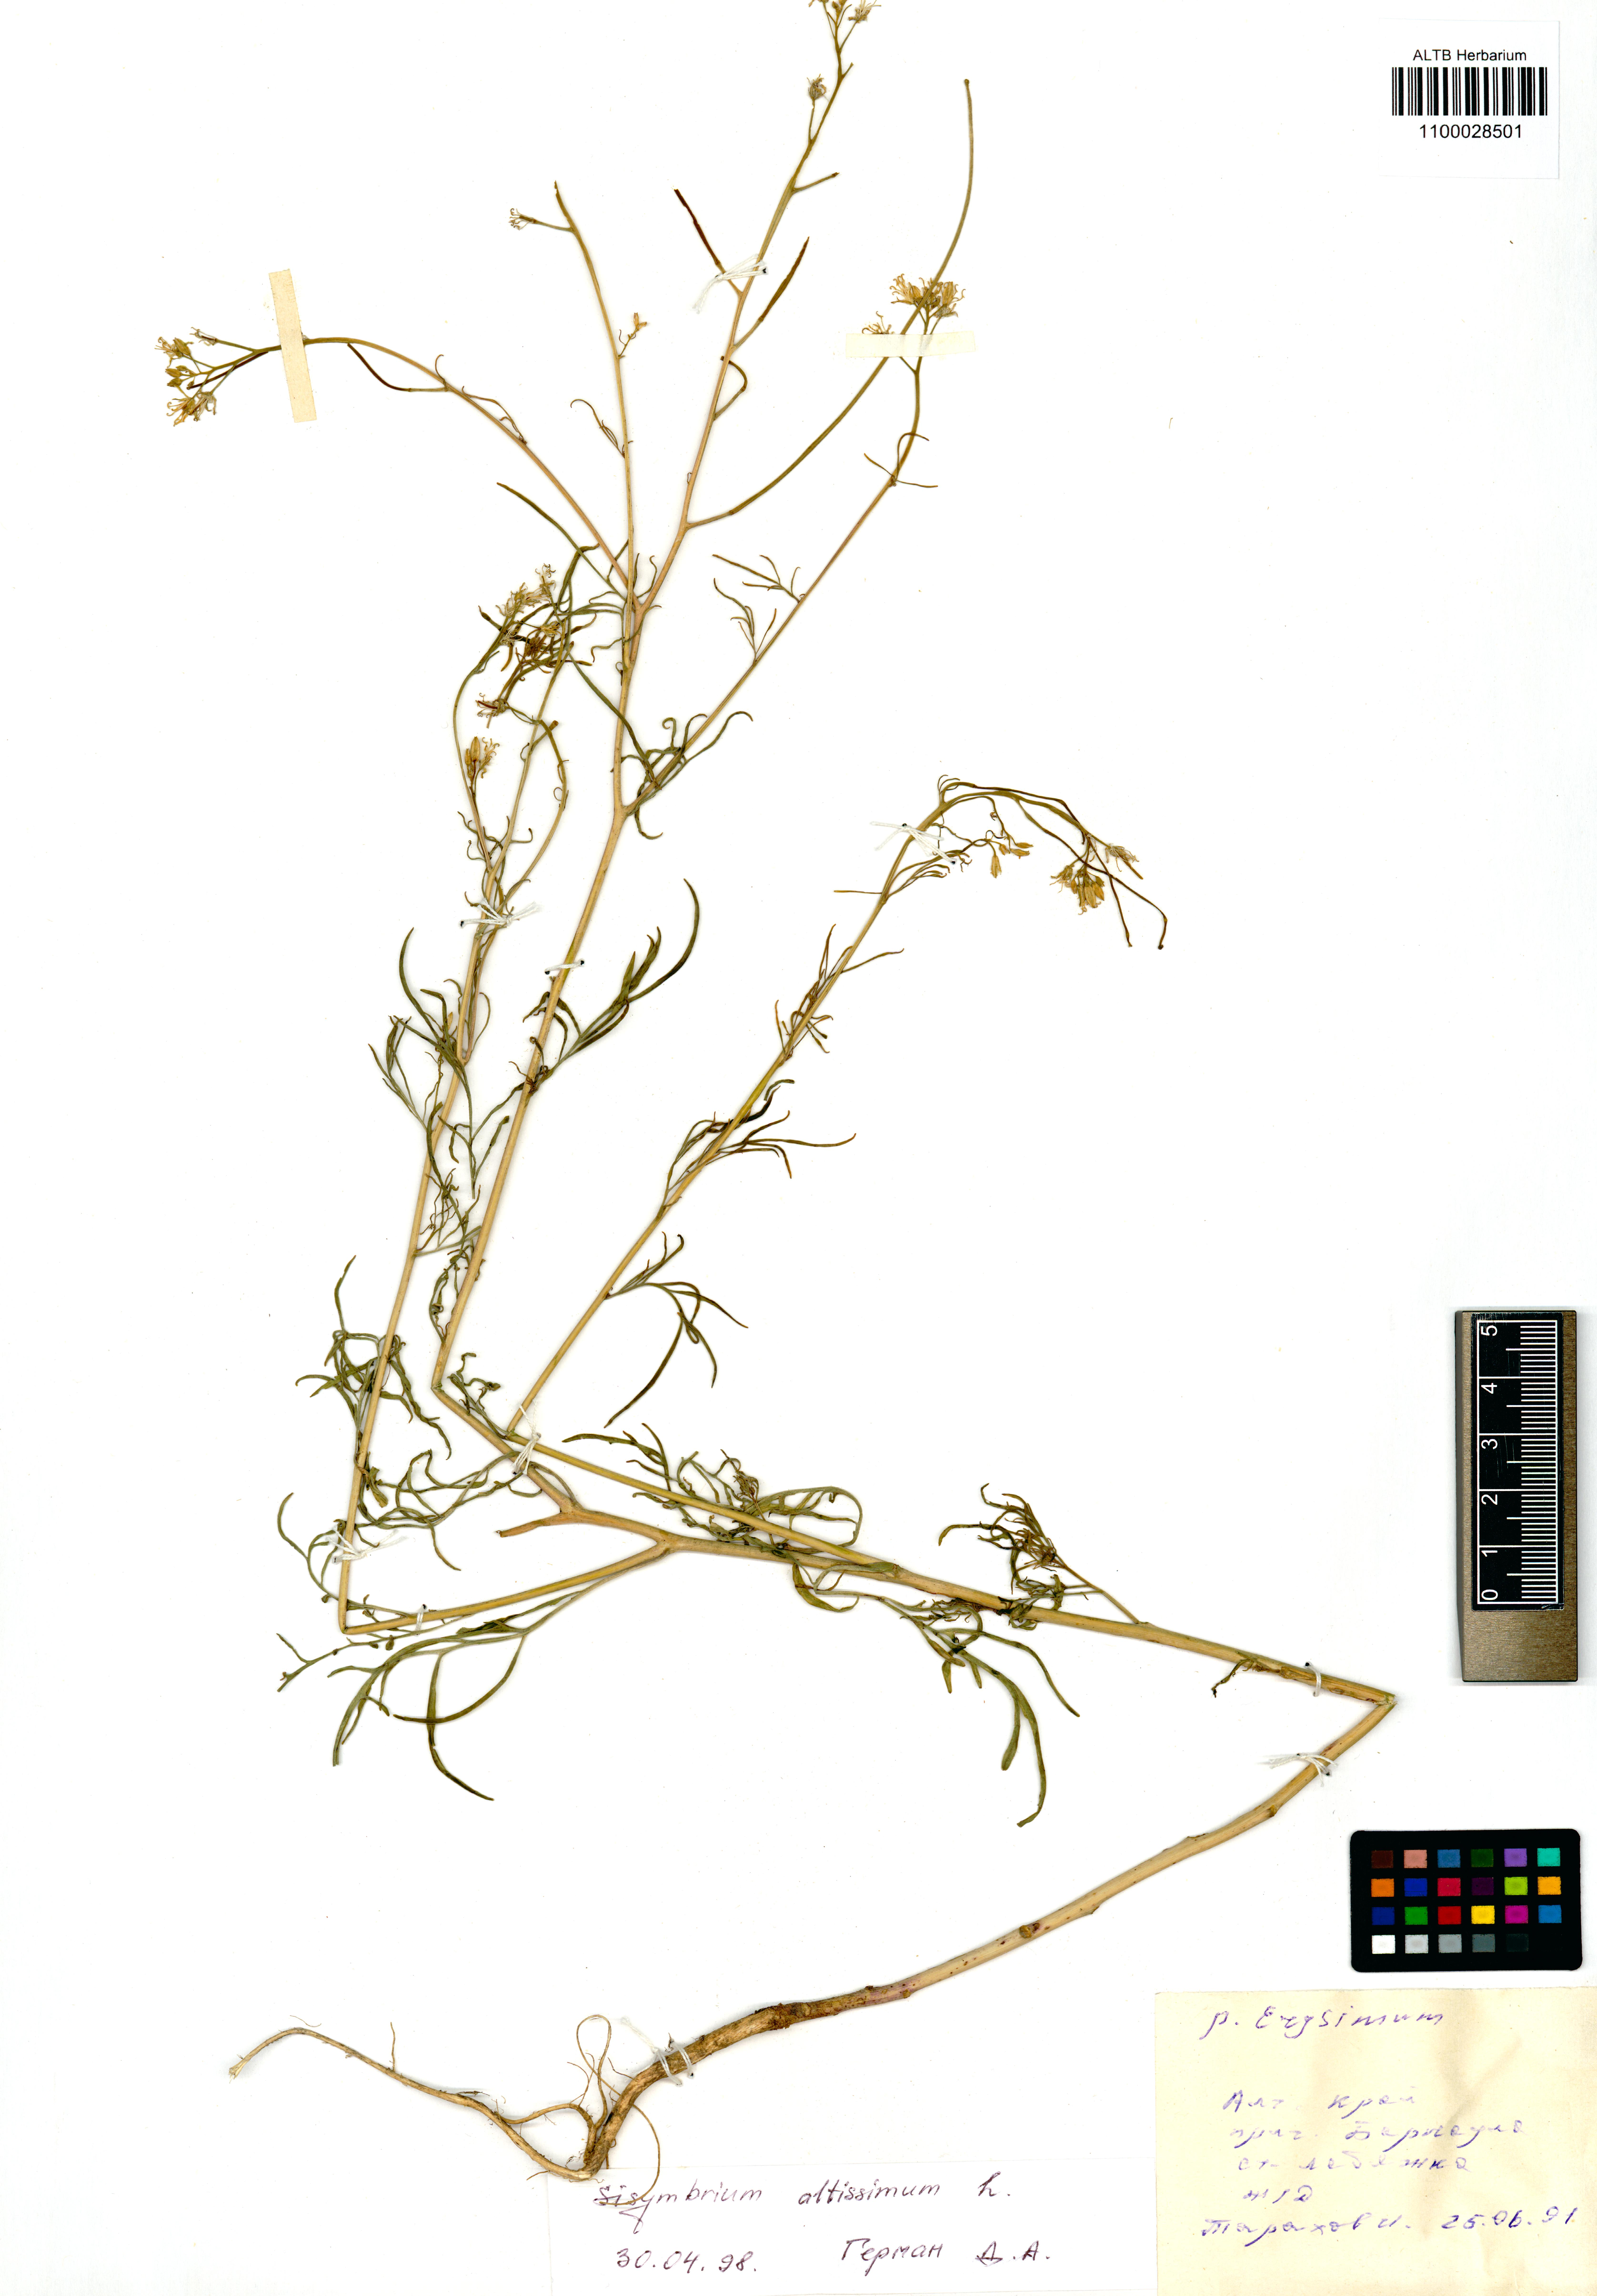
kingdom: Plantae
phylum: Tracheophyta
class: Magnoliopsida
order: Brassicales
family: Brassicaceae
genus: Sisymbrium
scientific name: Sisymbrium altissimum
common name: Tall rocket
